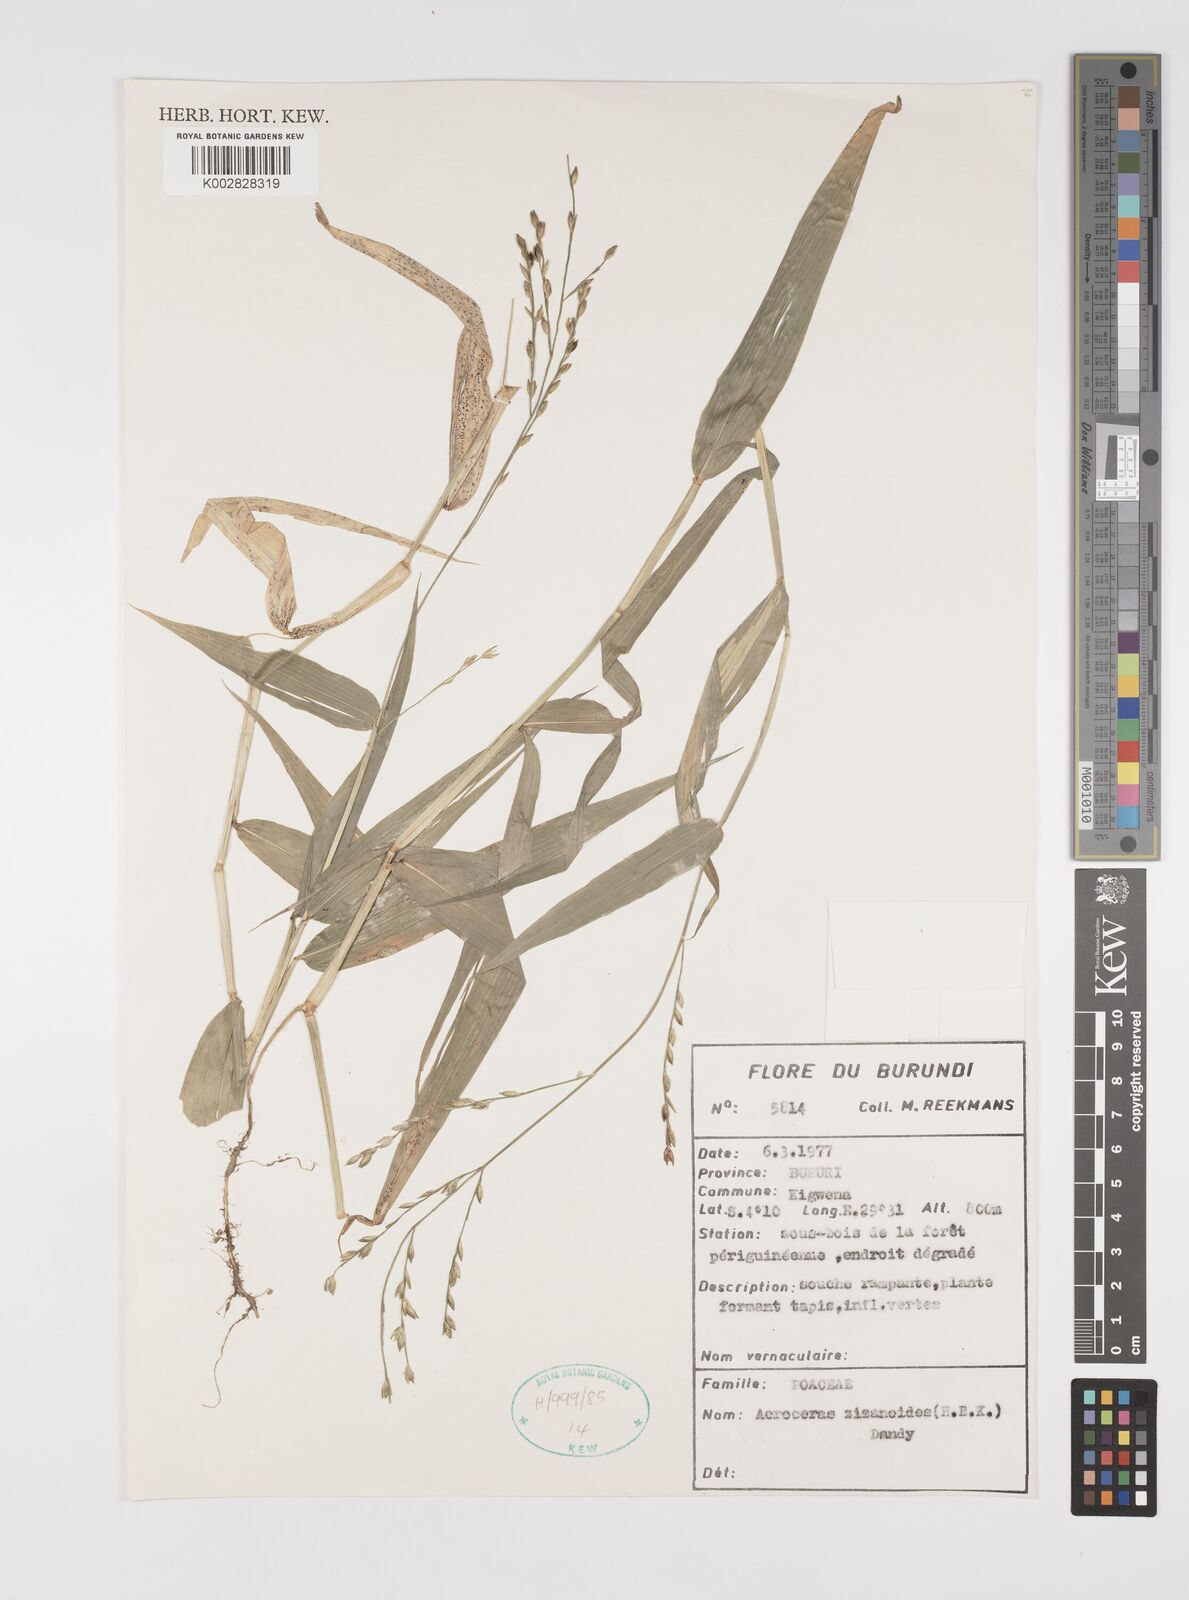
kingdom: Plantae
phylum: Tracheophyta
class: Liliopsida
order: Poales
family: Poaceae
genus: Acroceras
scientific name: Acroceras zizanioides
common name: Oat grass
